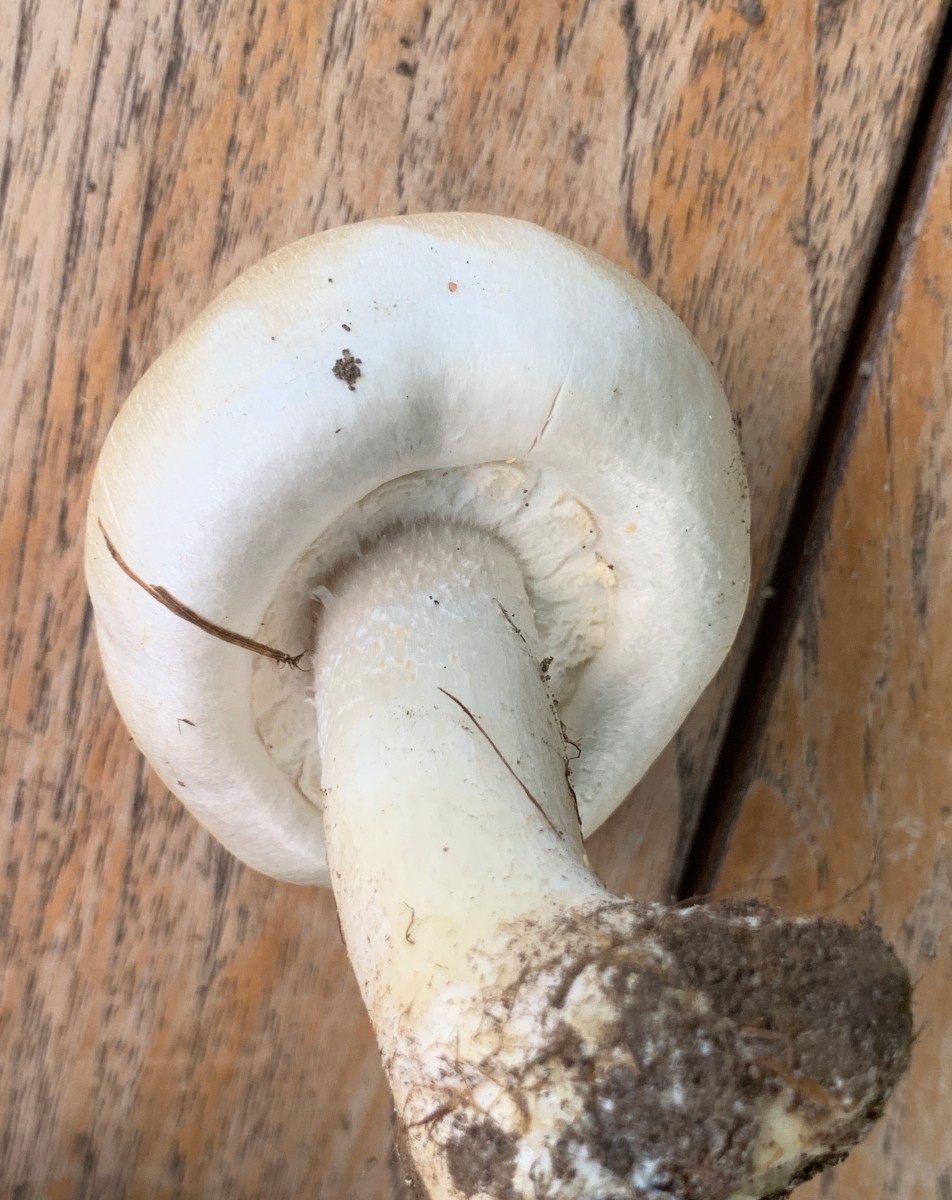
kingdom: Fungi
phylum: Basidiomycota
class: Agaricomycetes
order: Agaricales
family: Agaricaceae
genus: Agaricus
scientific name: Agaricus arvensis
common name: ager-champignon
